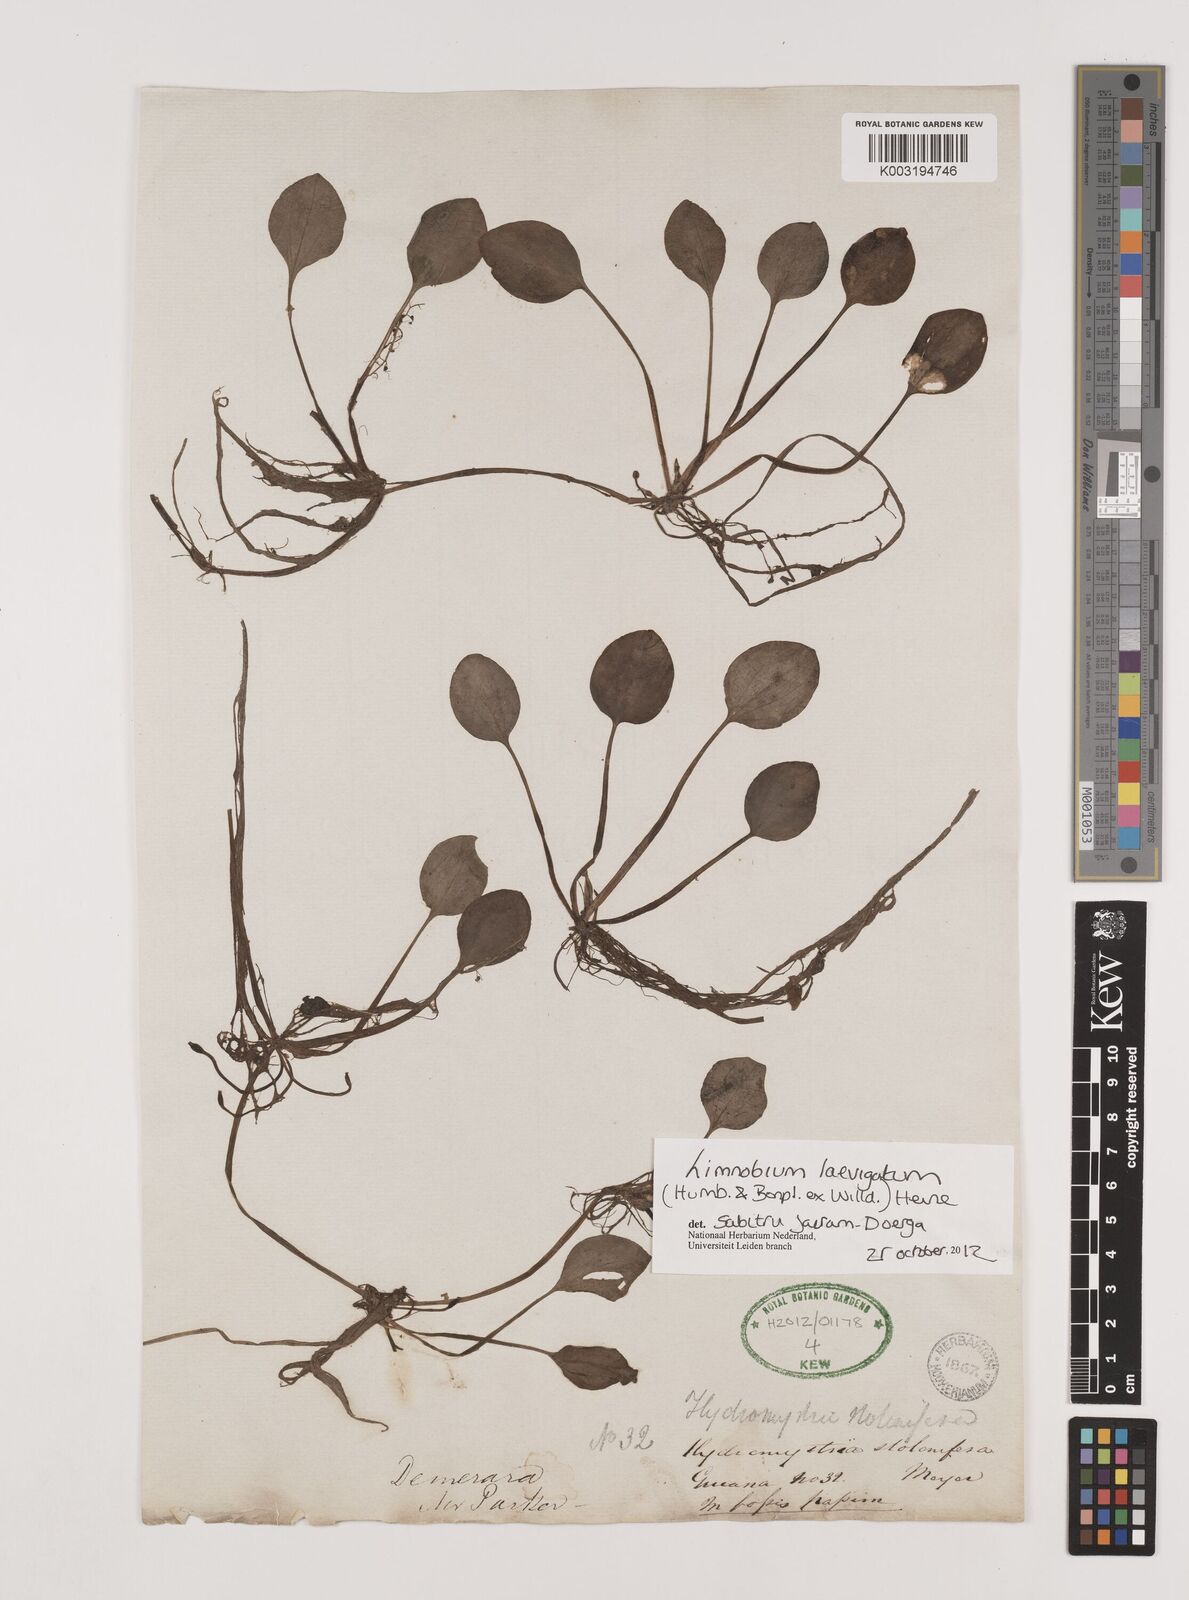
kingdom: Plantae
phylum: Tracheophyta
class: Liliopsida
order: Alismatales
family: Hydrocharitaceae
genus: Hydrocharis
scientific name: Hydrocharis laevigata
